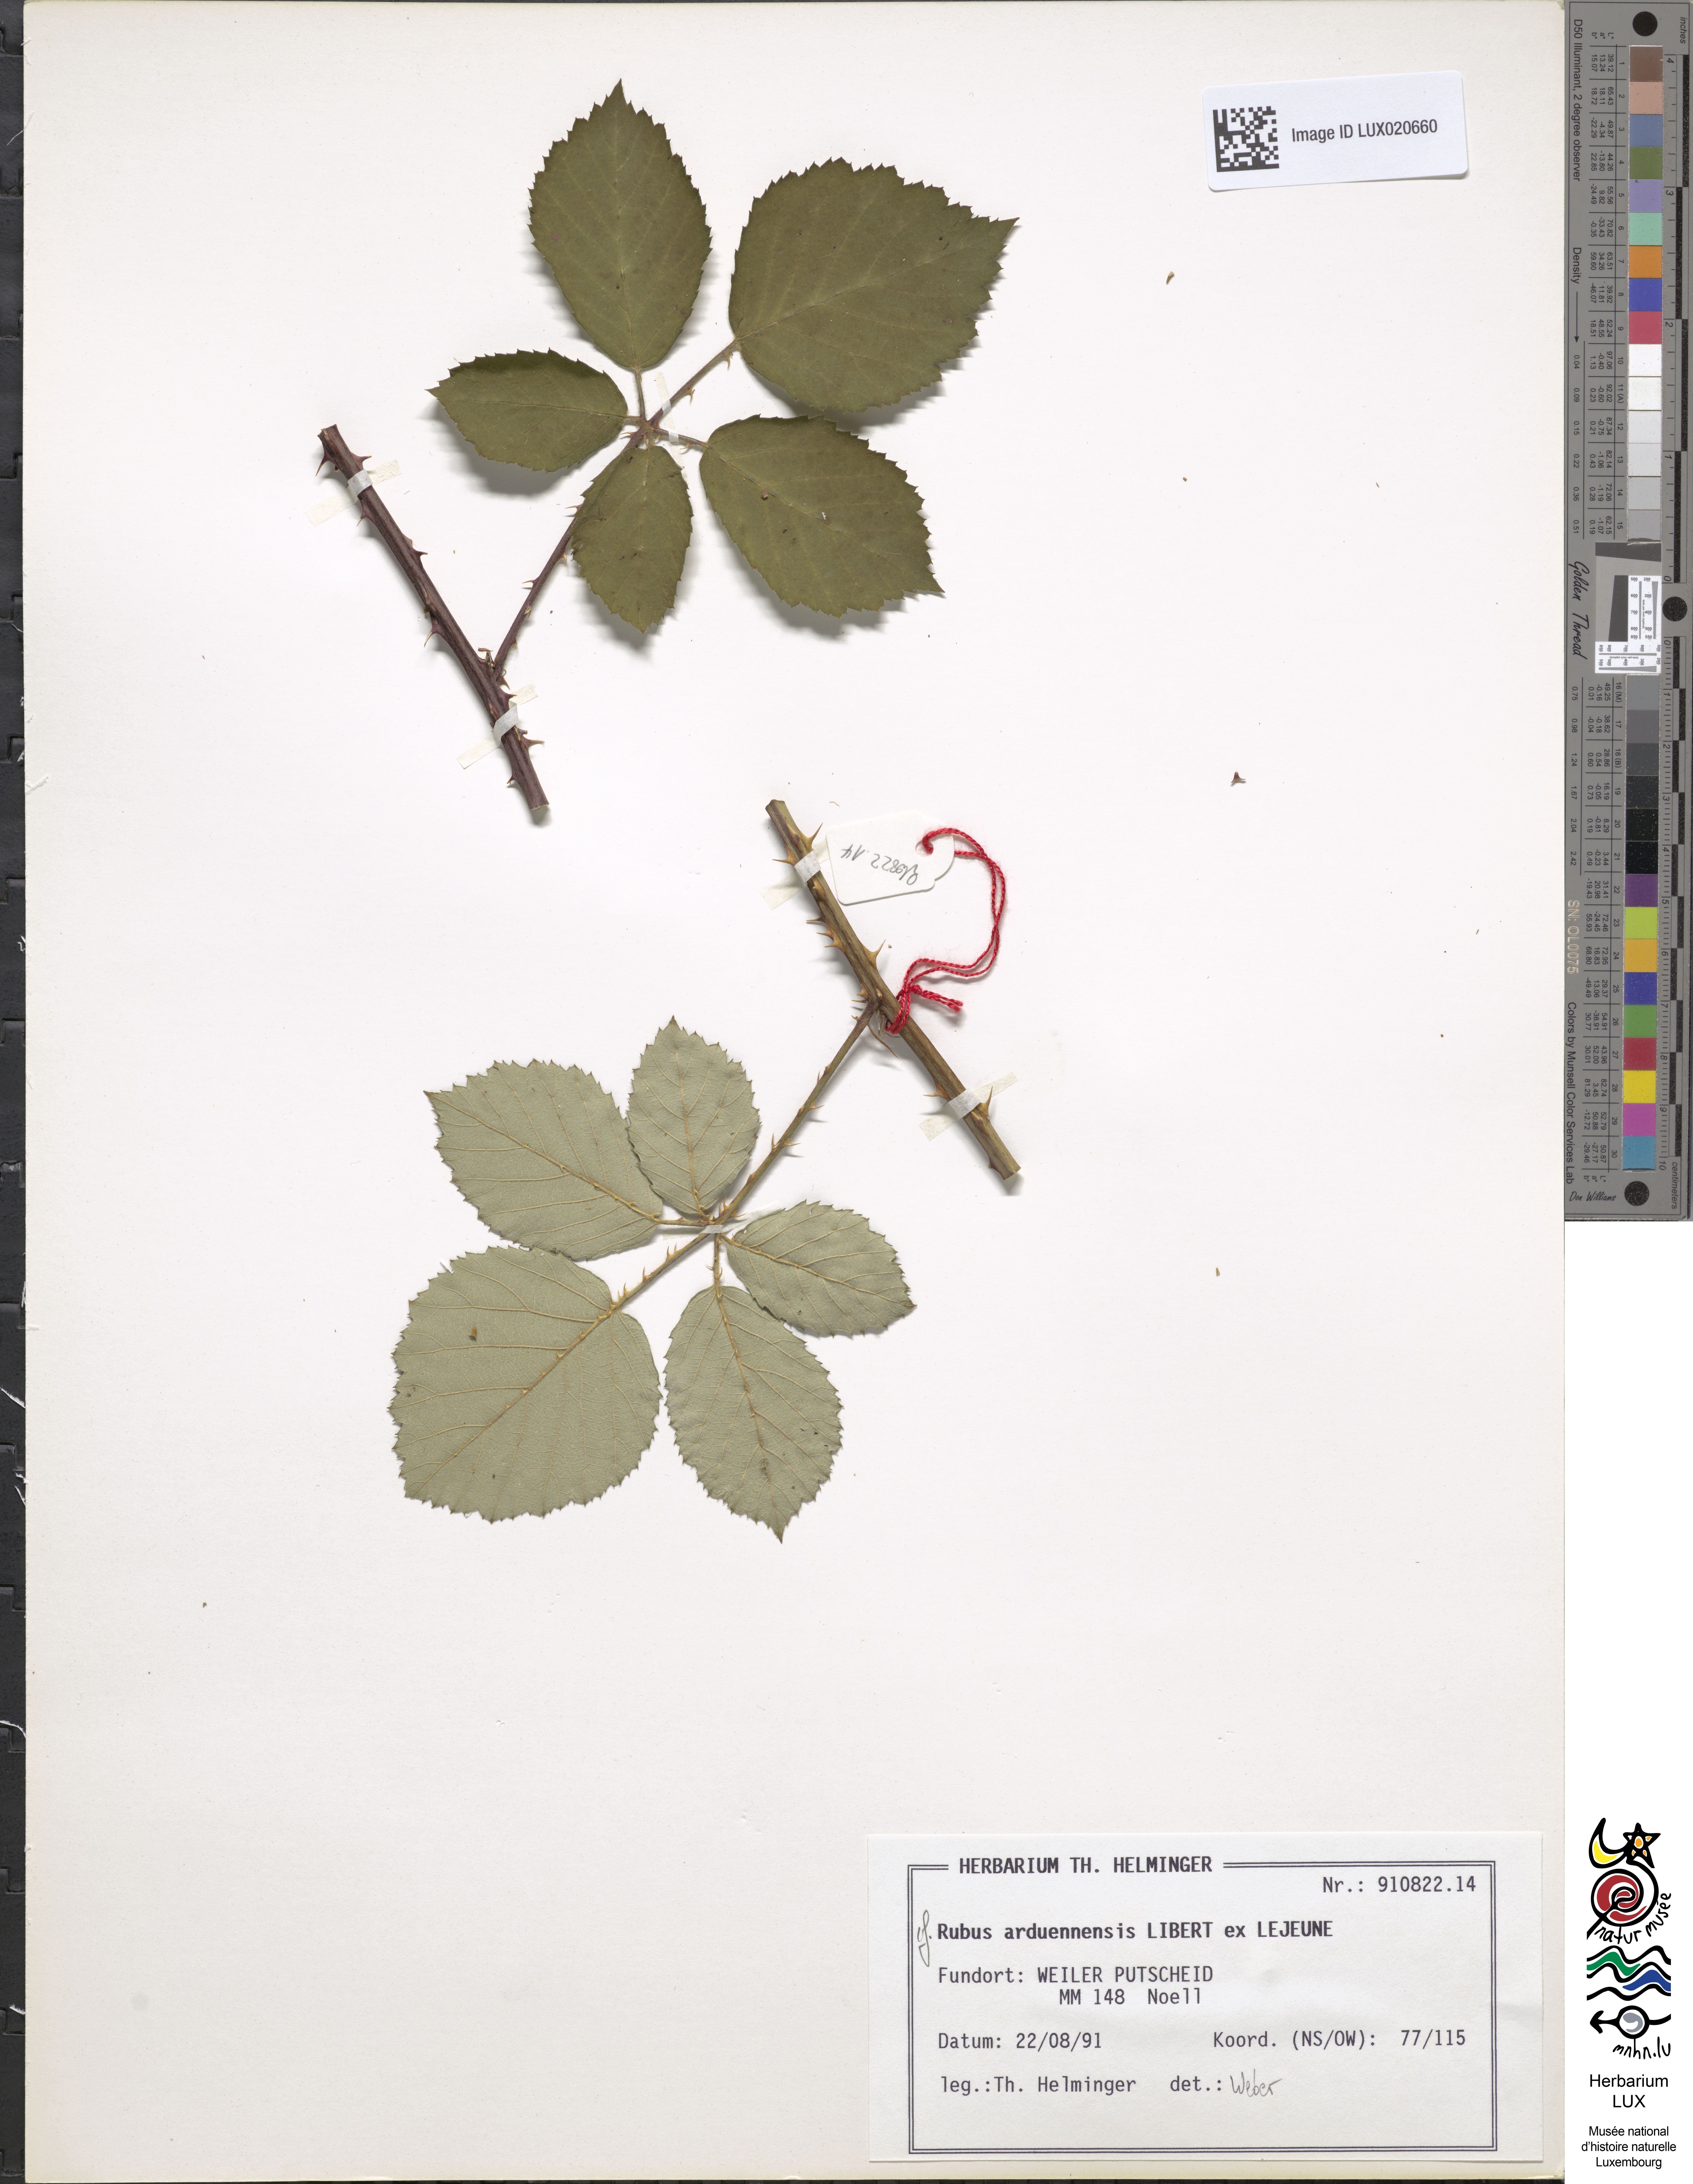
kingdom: Plantae
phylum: Tracheophyta
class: Magnoliopsida
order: Rosales
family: Rosaceae
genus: Rubus
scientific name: Rubus arduennensis
